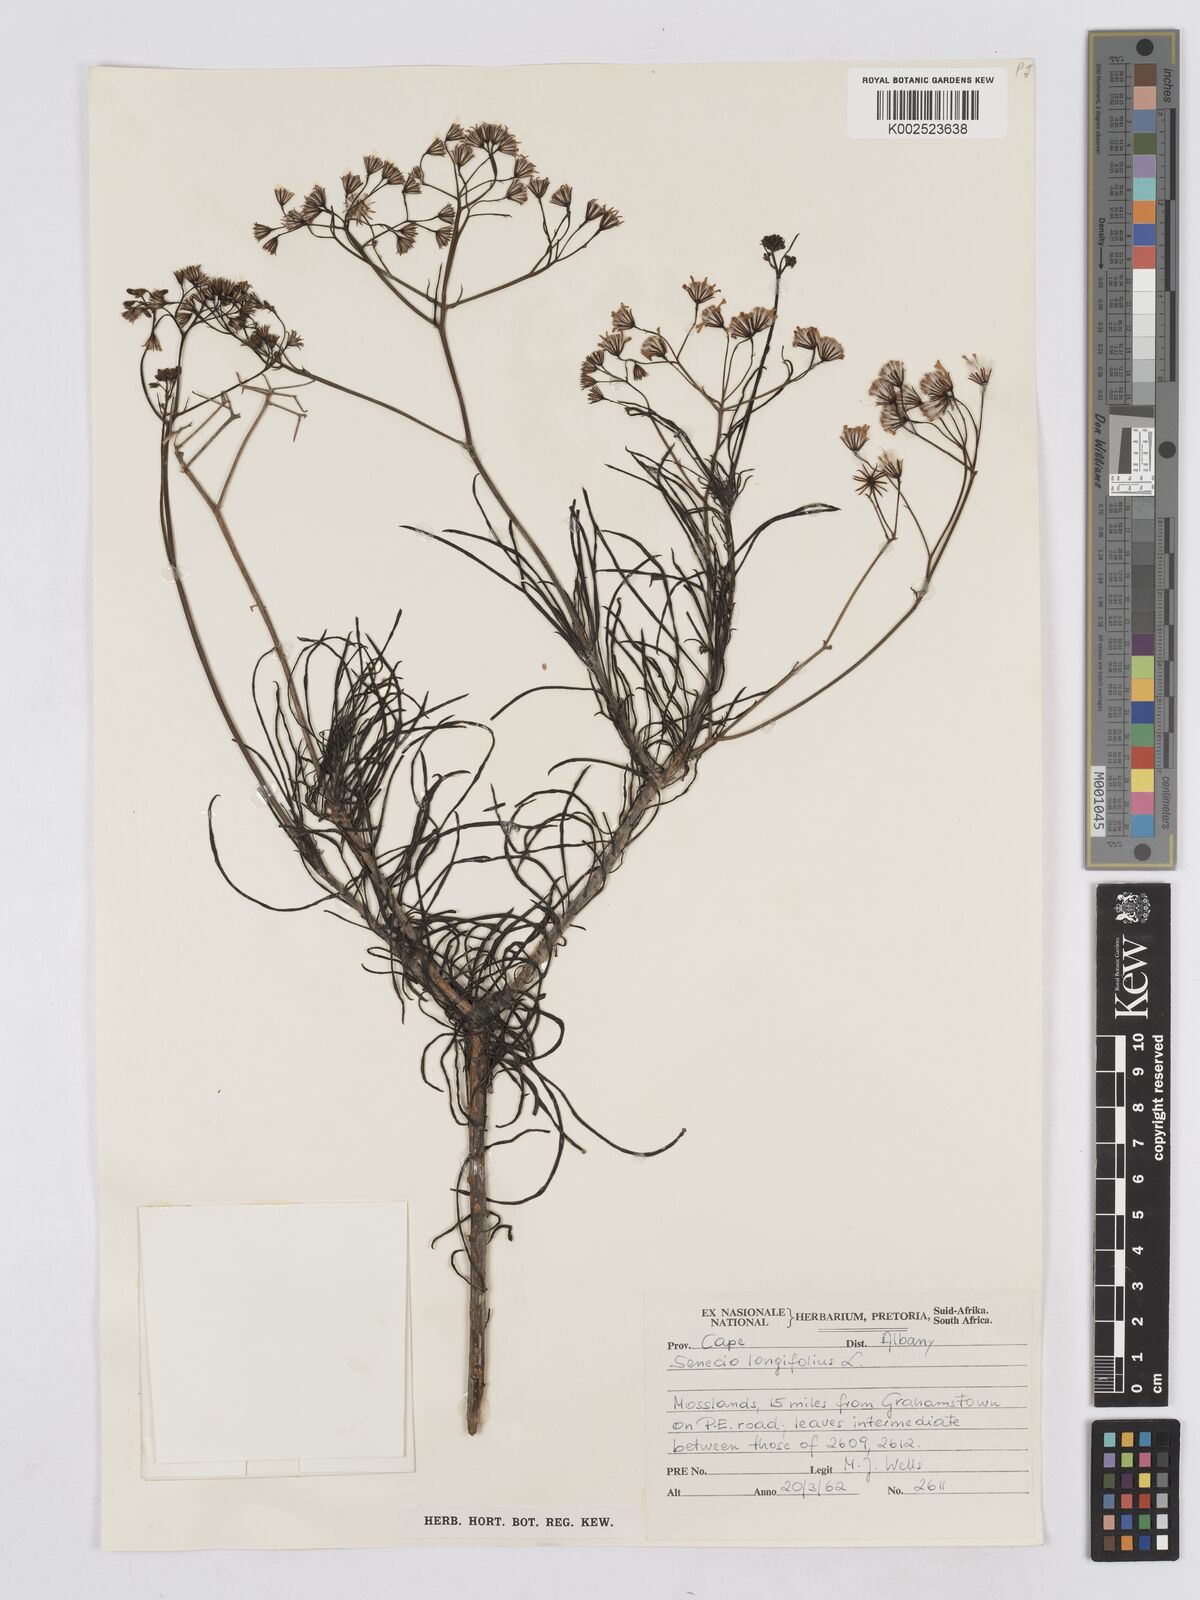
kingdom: Plantae
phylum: Tracheophyta
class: Magnoliopsida
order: Asterales
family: Asteraceae
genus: Senecio
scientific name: Senecio linifolius
